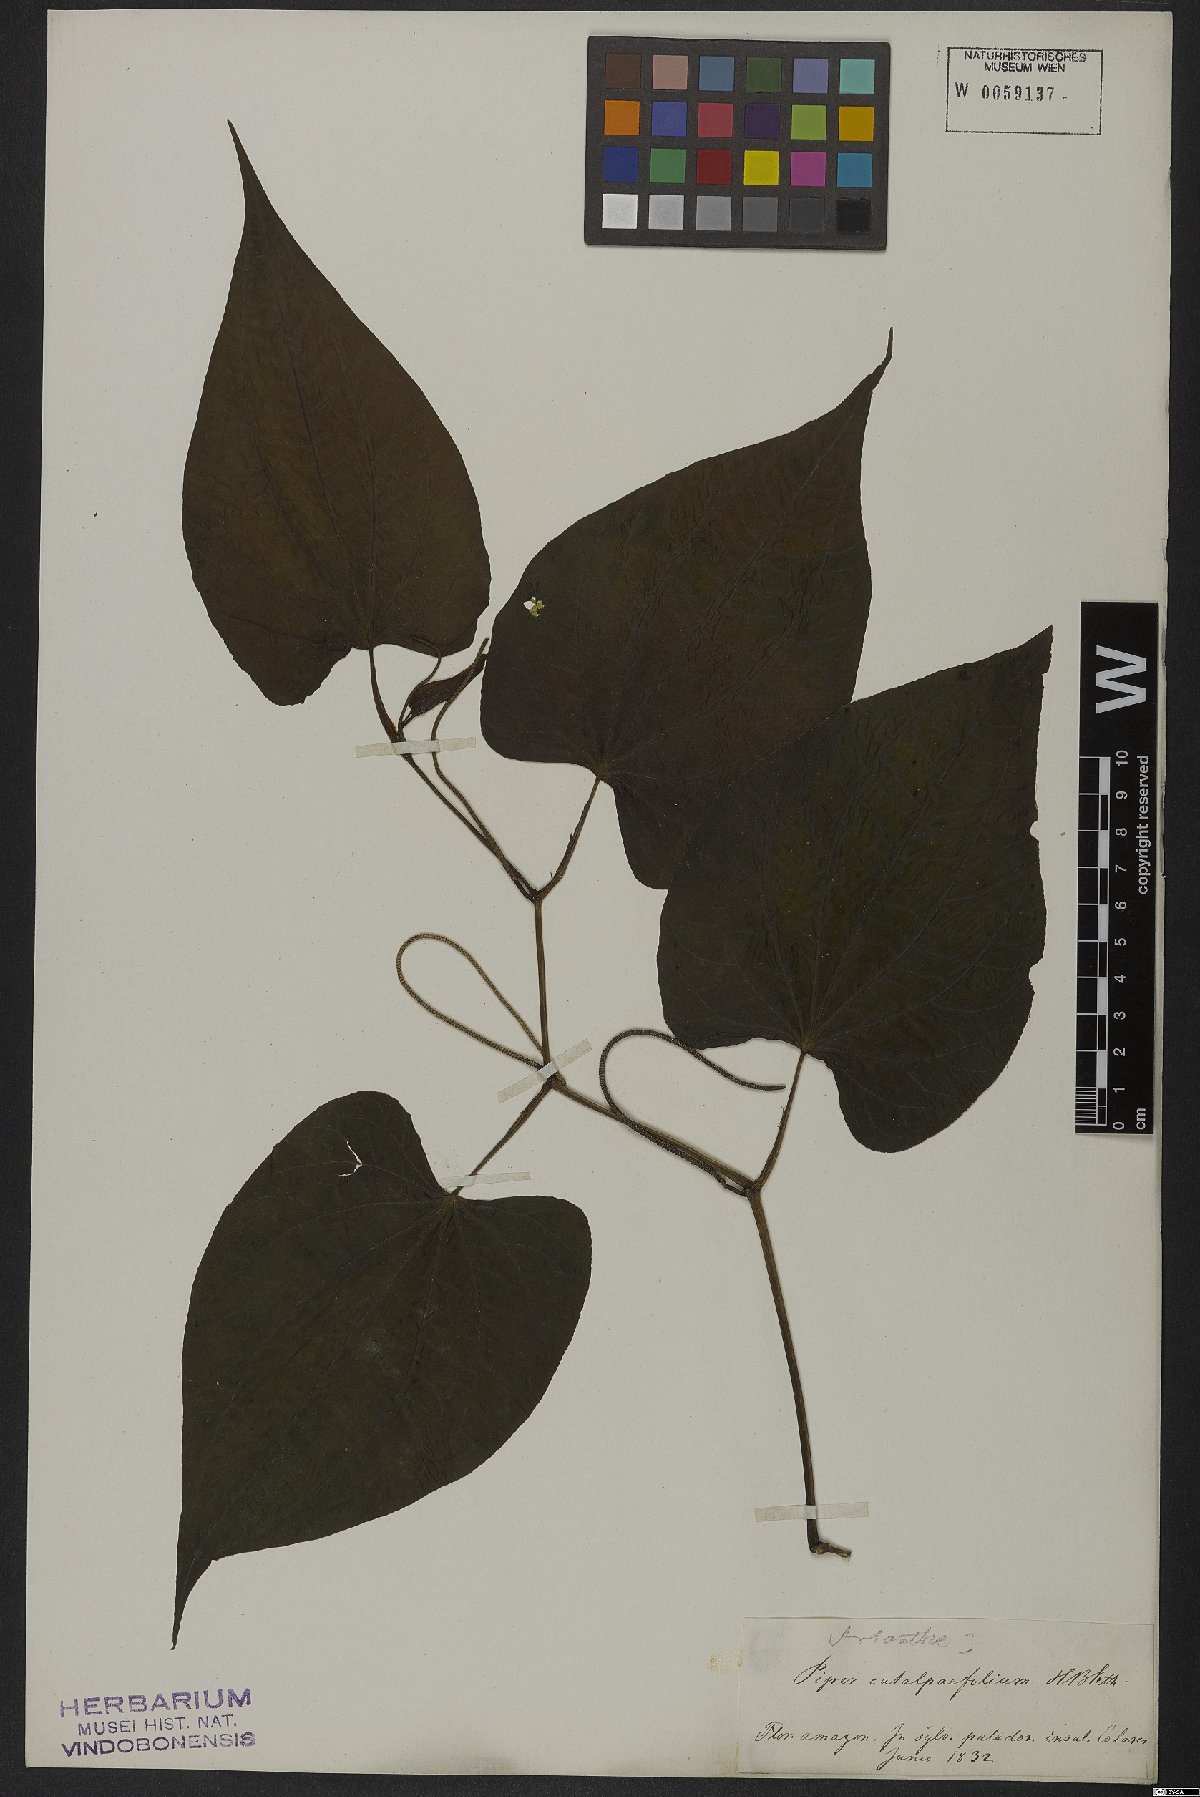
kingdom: Plantae
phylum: Tracheophyta
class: Magnoliopsida
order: Piperales
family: Piperaceae
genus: Piper
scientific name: Piper marginatum
